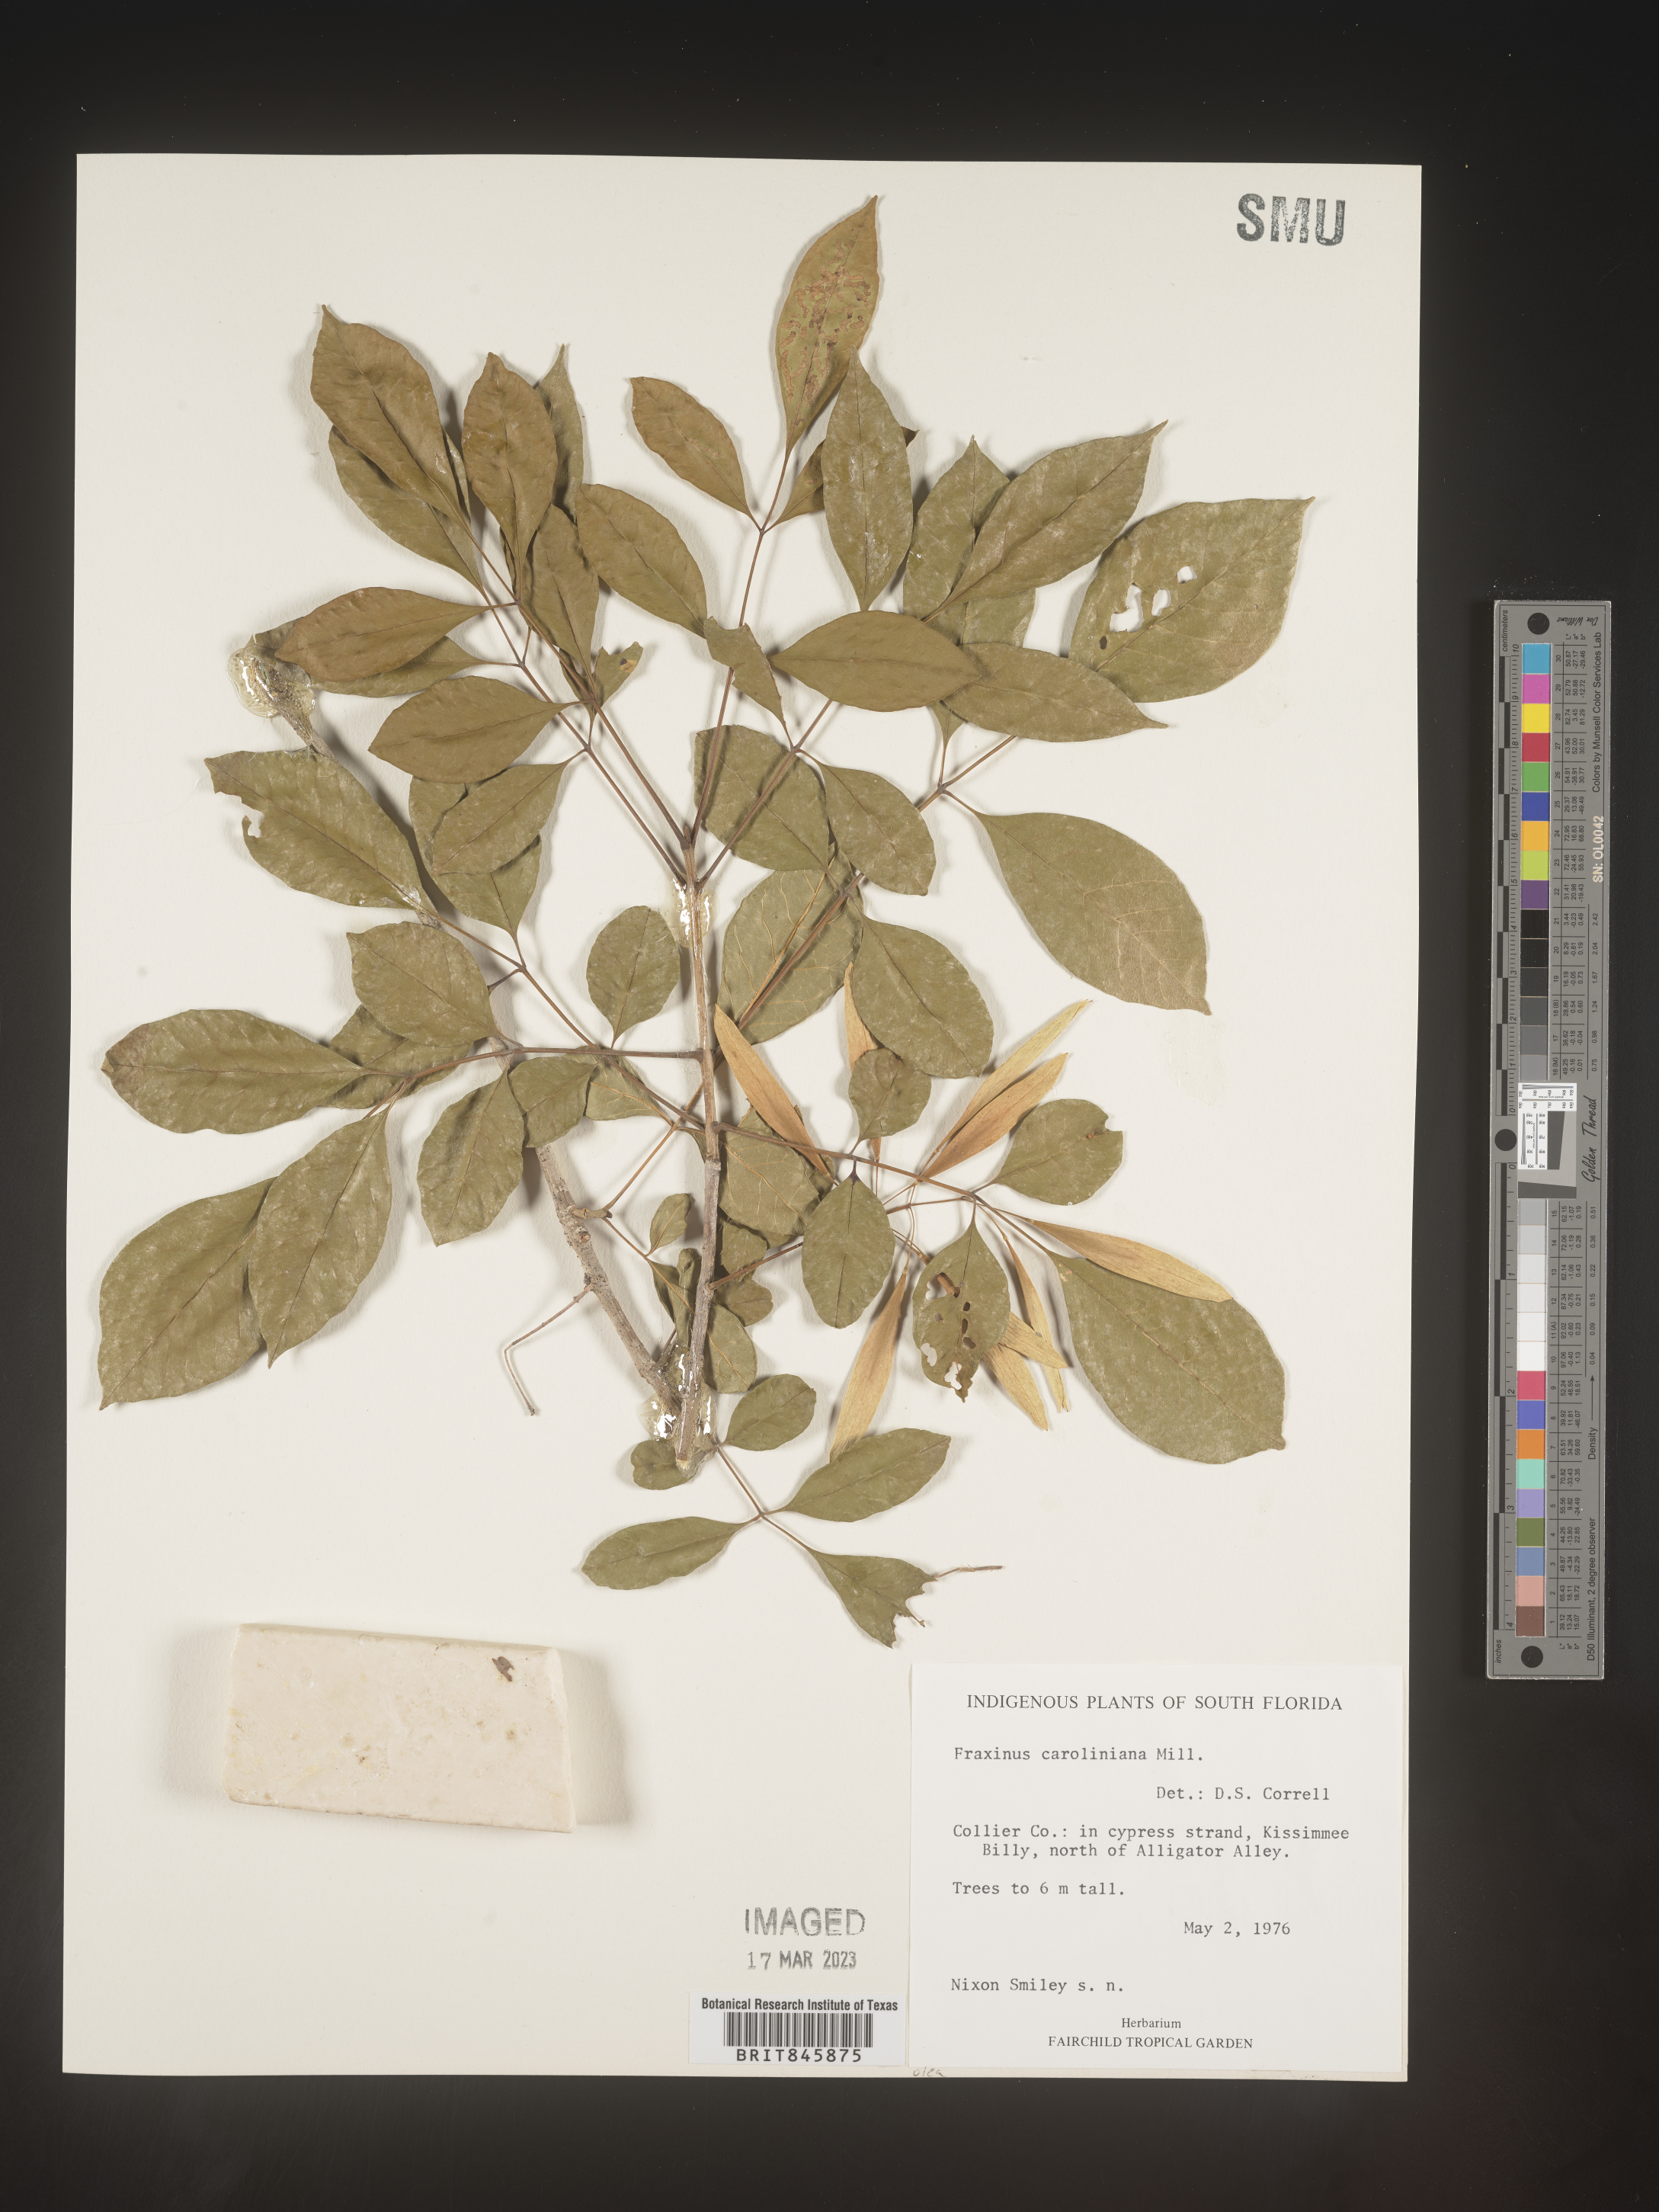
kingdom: Plantae
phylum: Tracheophyta
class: Magnoliopsida
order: Lamiales
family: Oleaceae
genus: Fraxinus
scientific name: Fraxinus caroliniana
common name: Carolina ash
